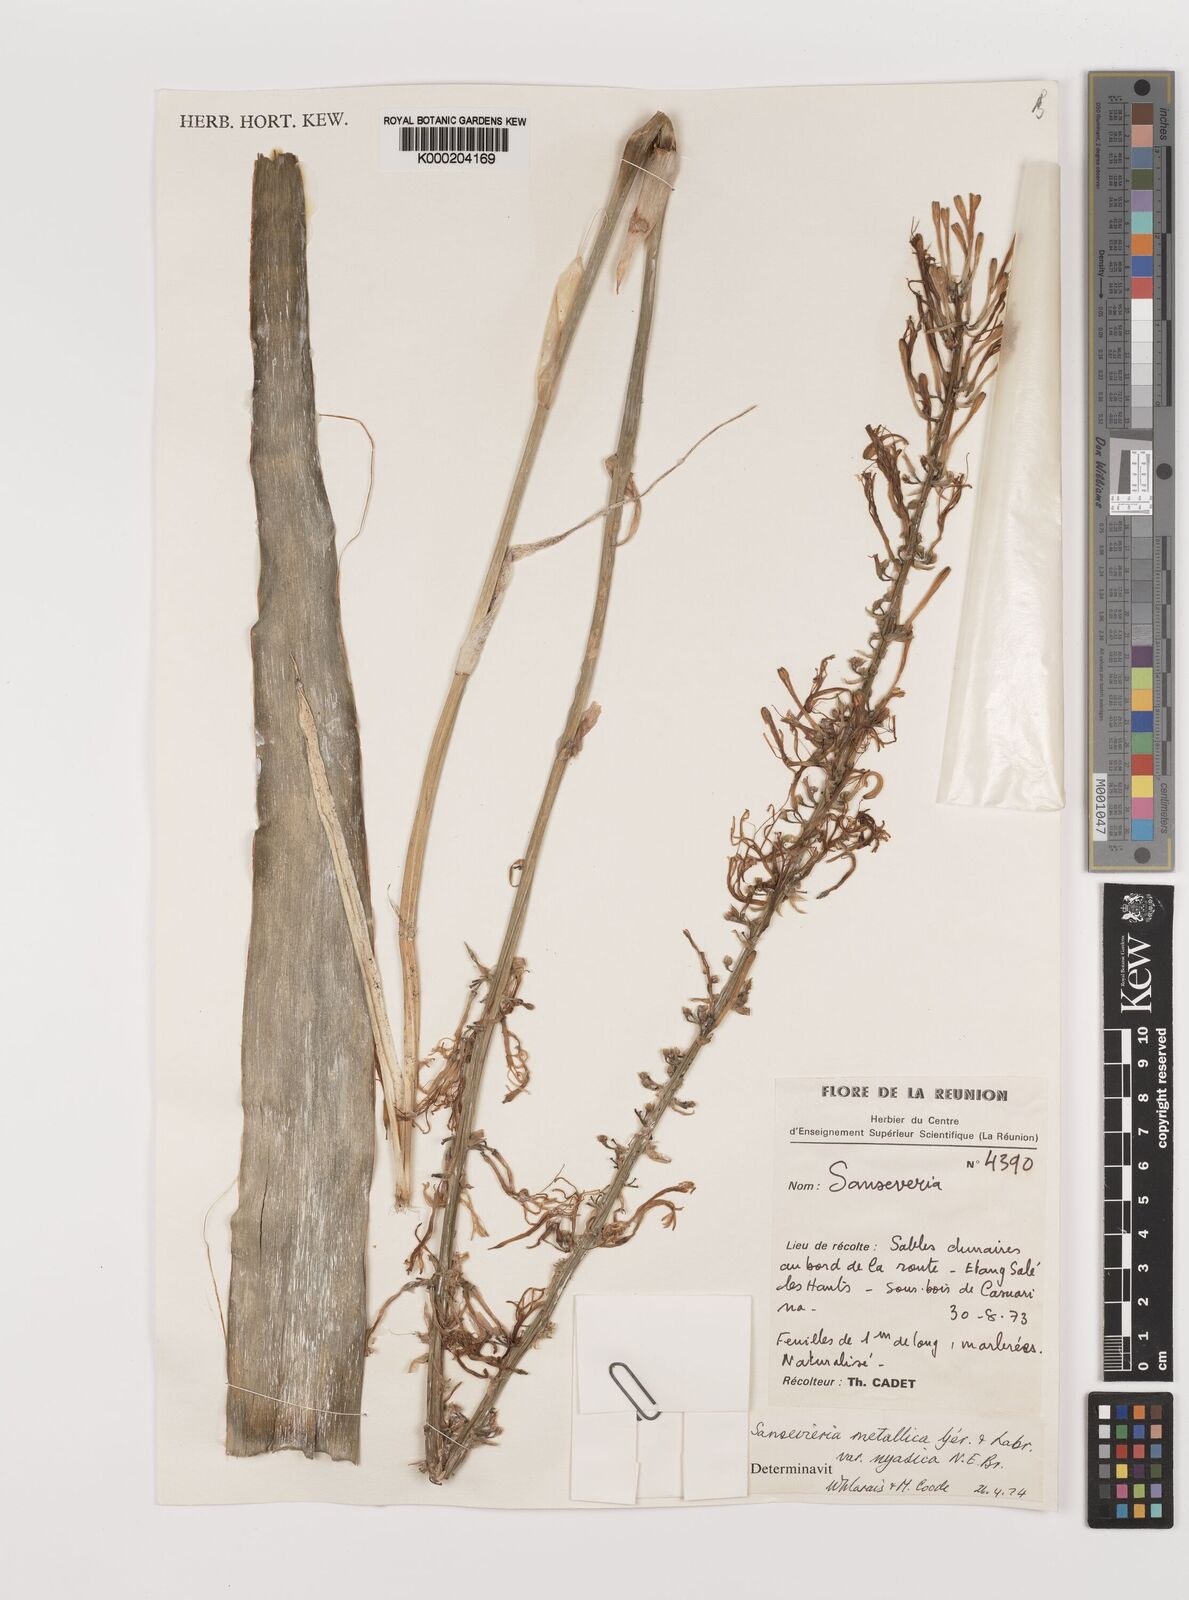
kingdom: Plantae
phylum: Tracheophyta
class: Liliopsida
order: Asparagales
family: Asparagaceae
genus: Dracaena
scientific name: Dracaena
